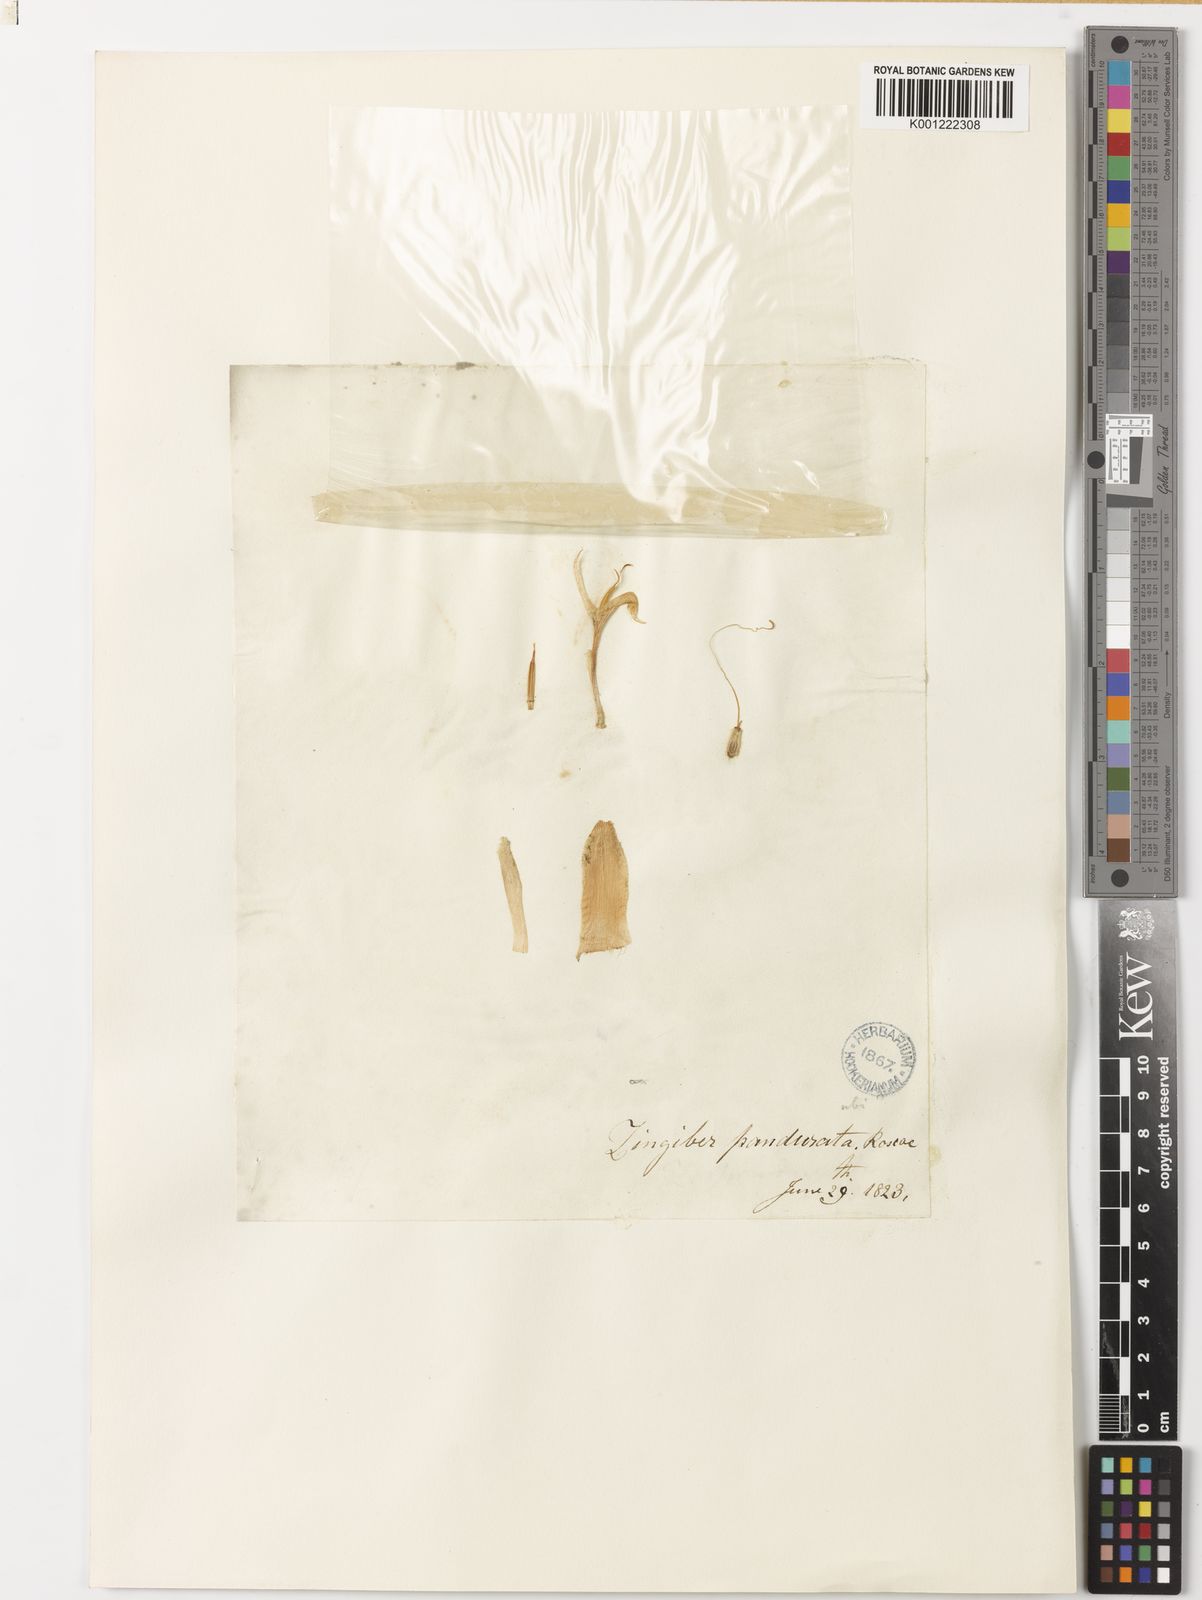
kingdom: Plantae
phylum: Tracheophyta
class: Liliopsida
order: Zingiberales
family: Zingiberaceae
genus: Zingiber
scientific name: Zingiber panduratum
